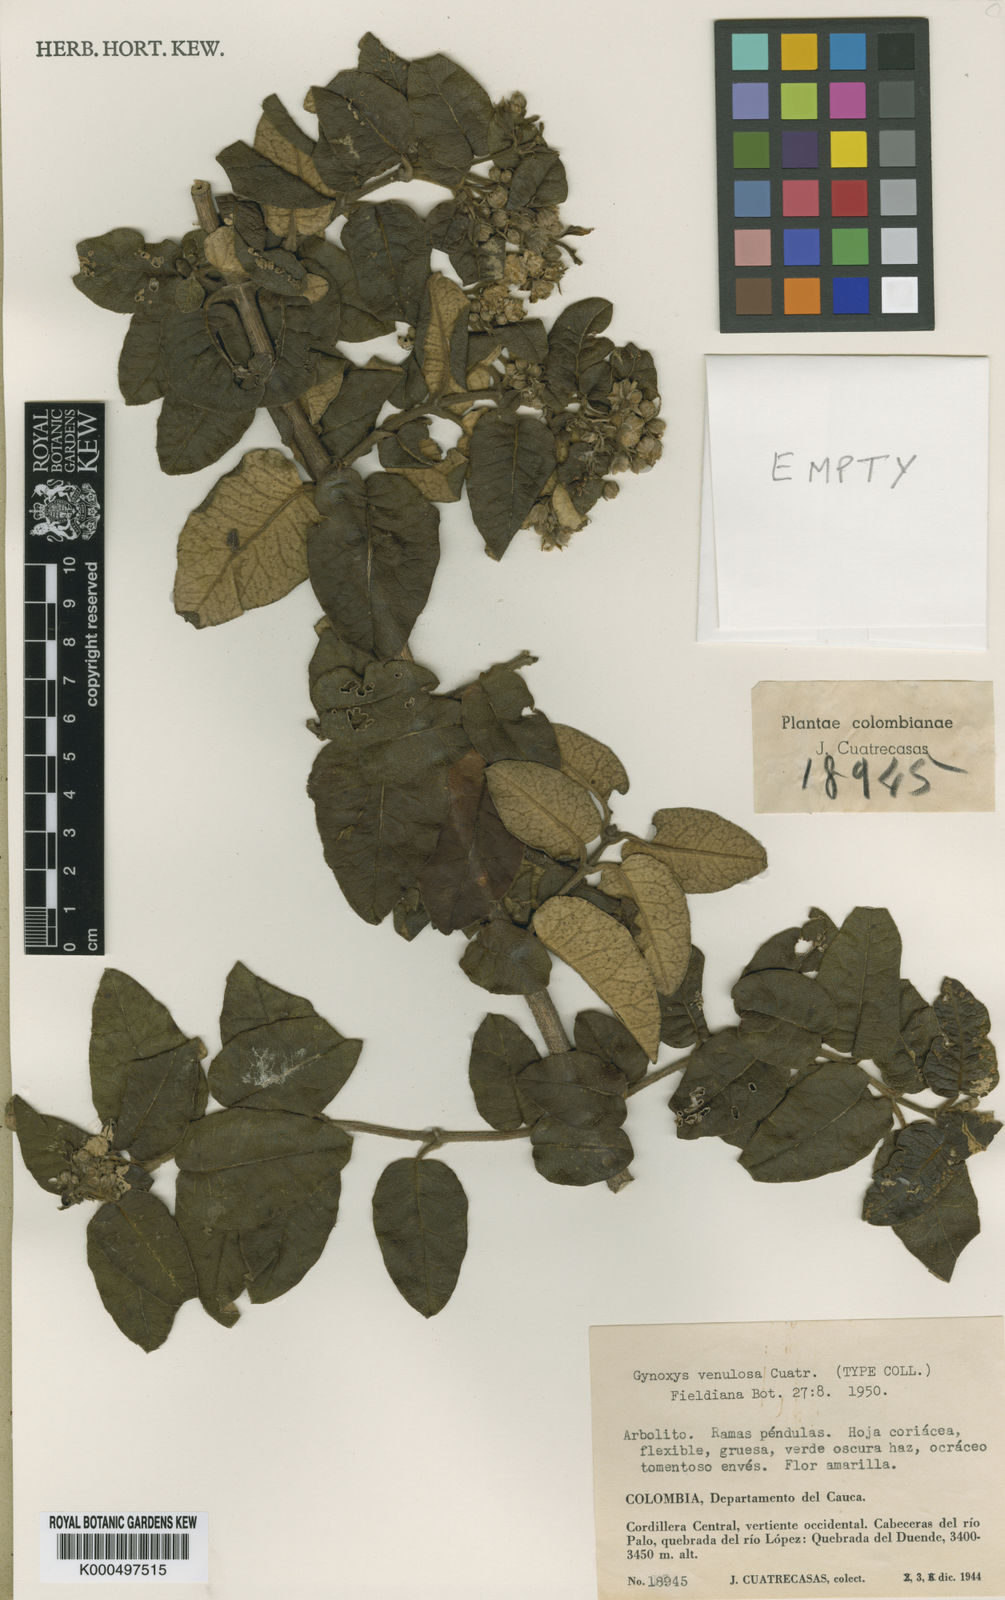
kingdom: Plantae
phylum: Tracheophyta
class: Magnoliopsida
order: Asterales
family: Asteraceae
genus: Gynoxys
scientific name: Gynoxys venulosa
